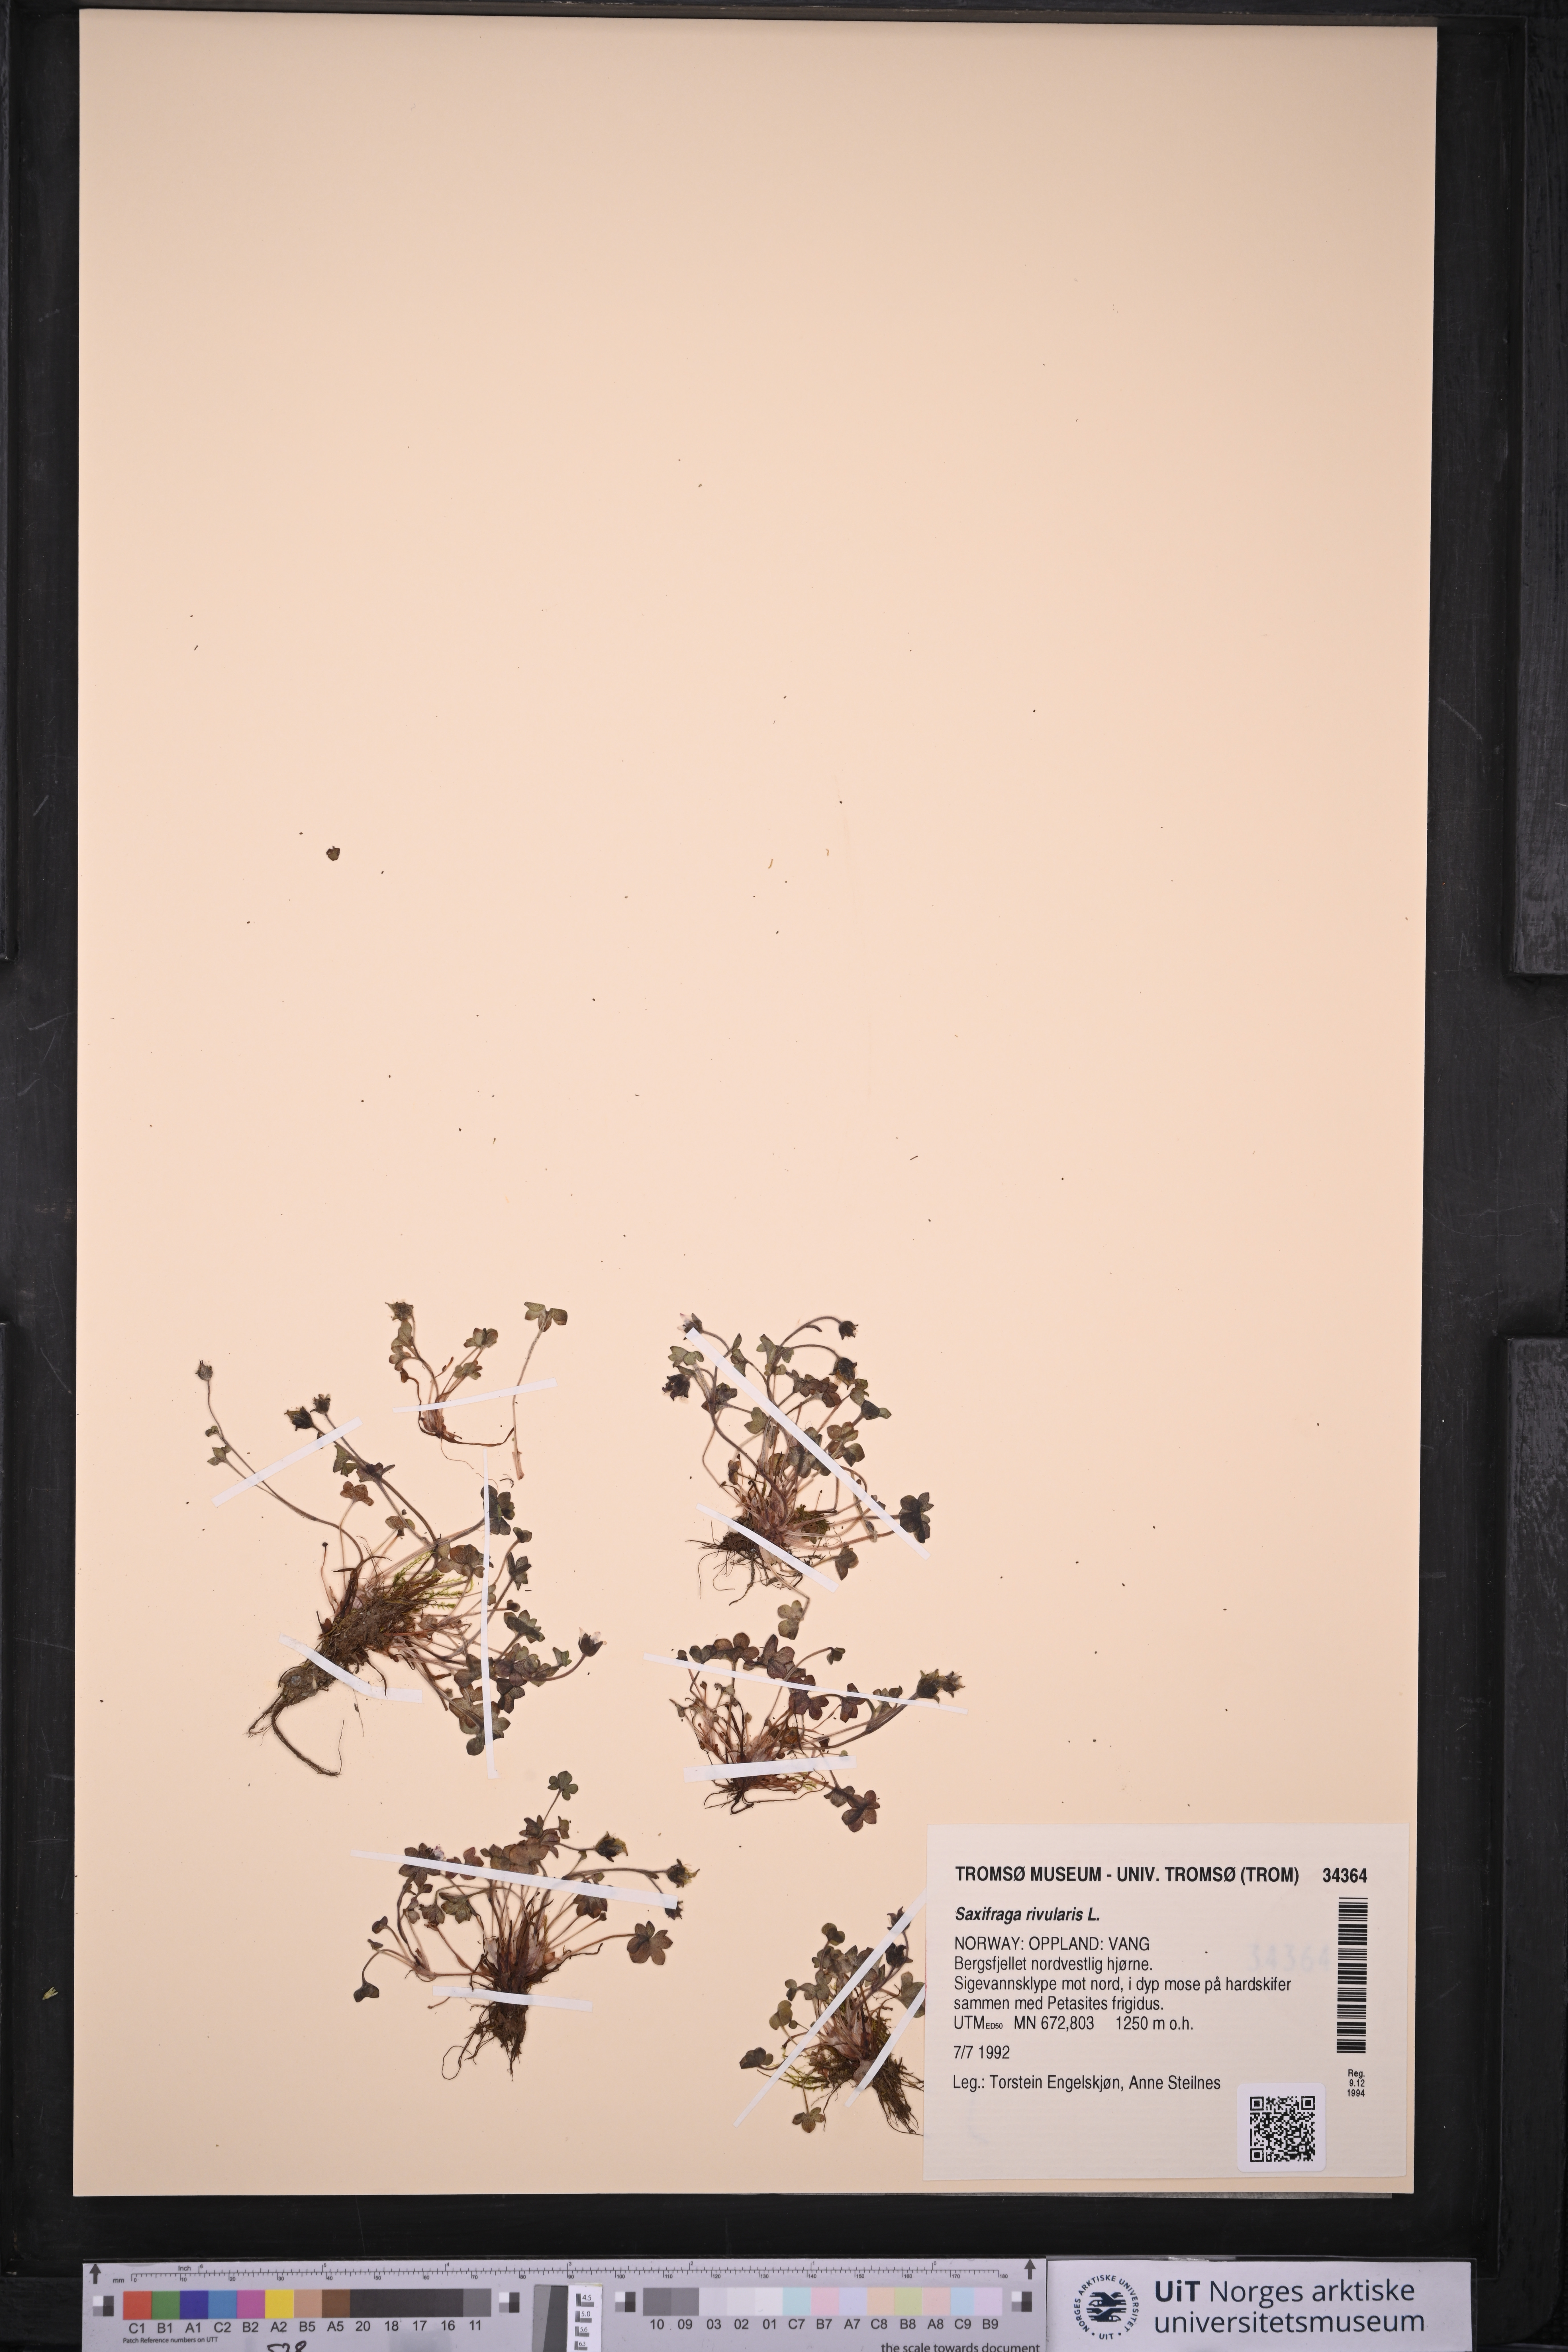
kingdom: Plantae
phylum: Tracheophyta
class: Magnoliopsida
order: Saxifragales
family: Saxifragaceae
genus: Saxifraga
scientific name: Saxifraga rivularis
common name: Highland saxifrage
